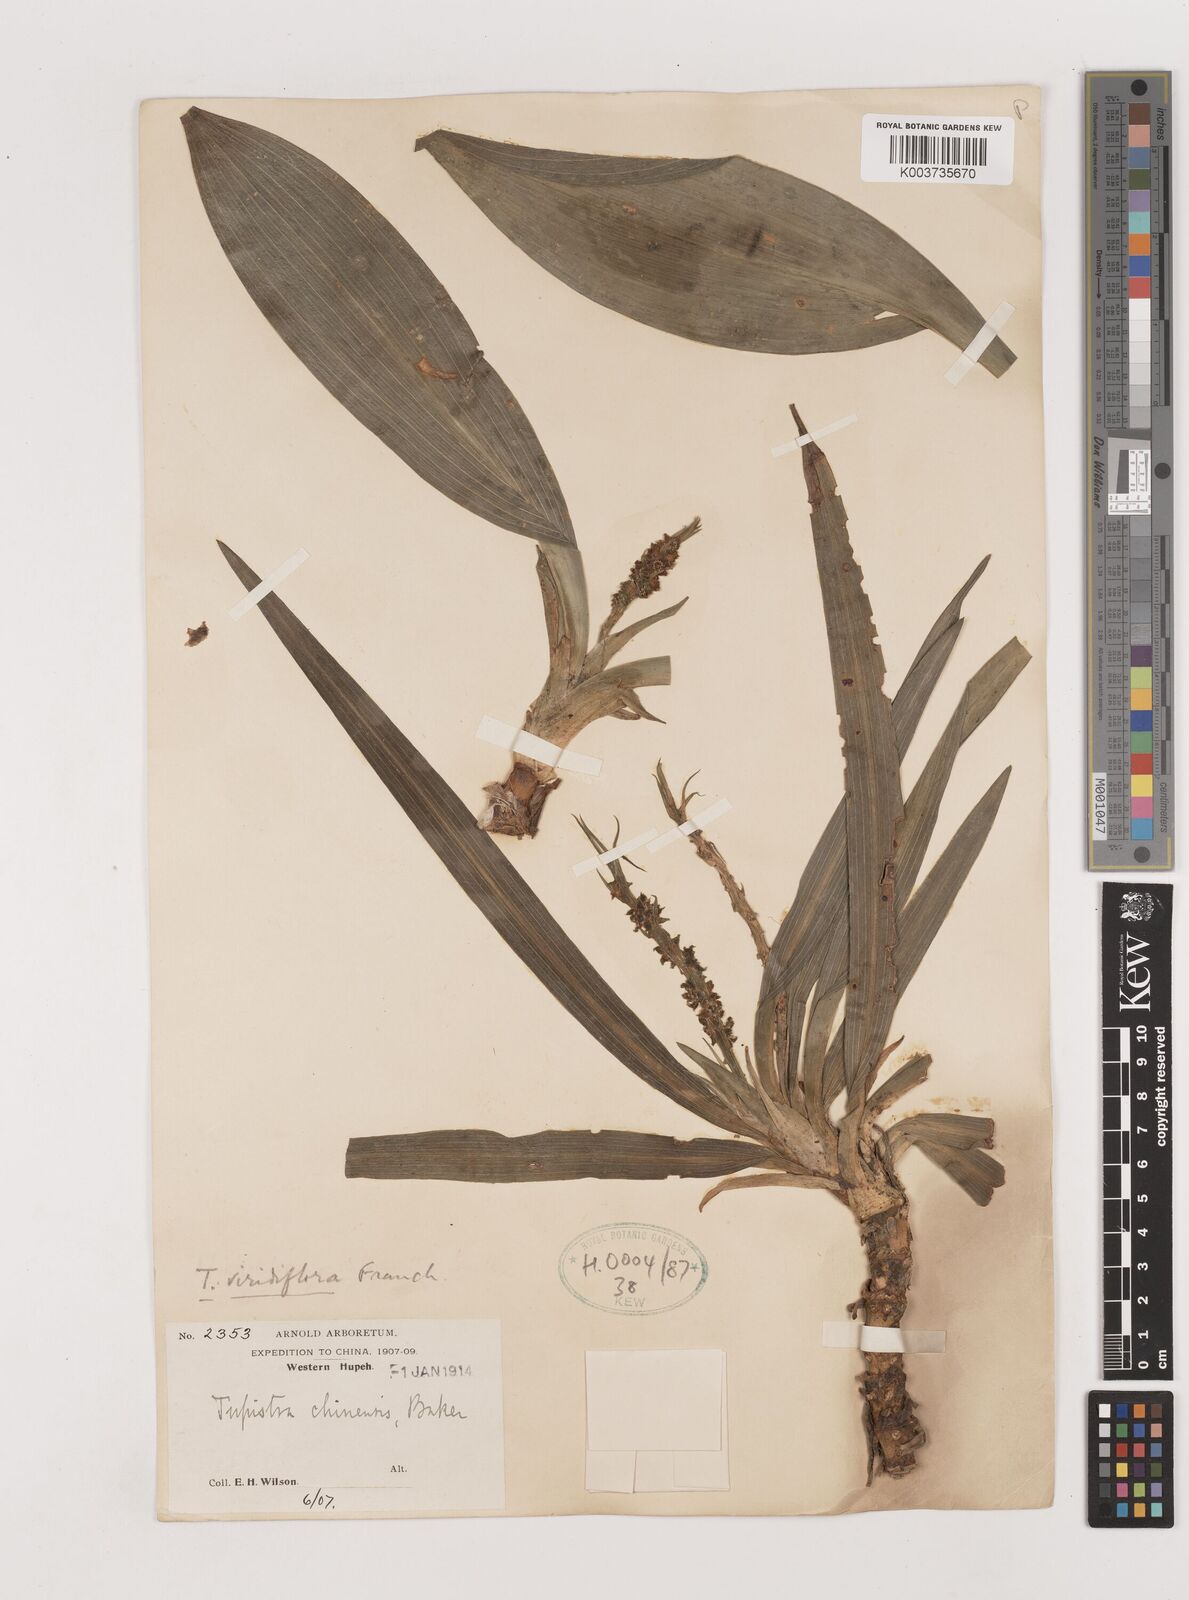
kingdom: Plantae
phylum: Tracheophyta
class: Liliopsida
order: Asparagales
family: Asparagaceae
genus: Rohdea
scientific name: Rohdea fargesii
